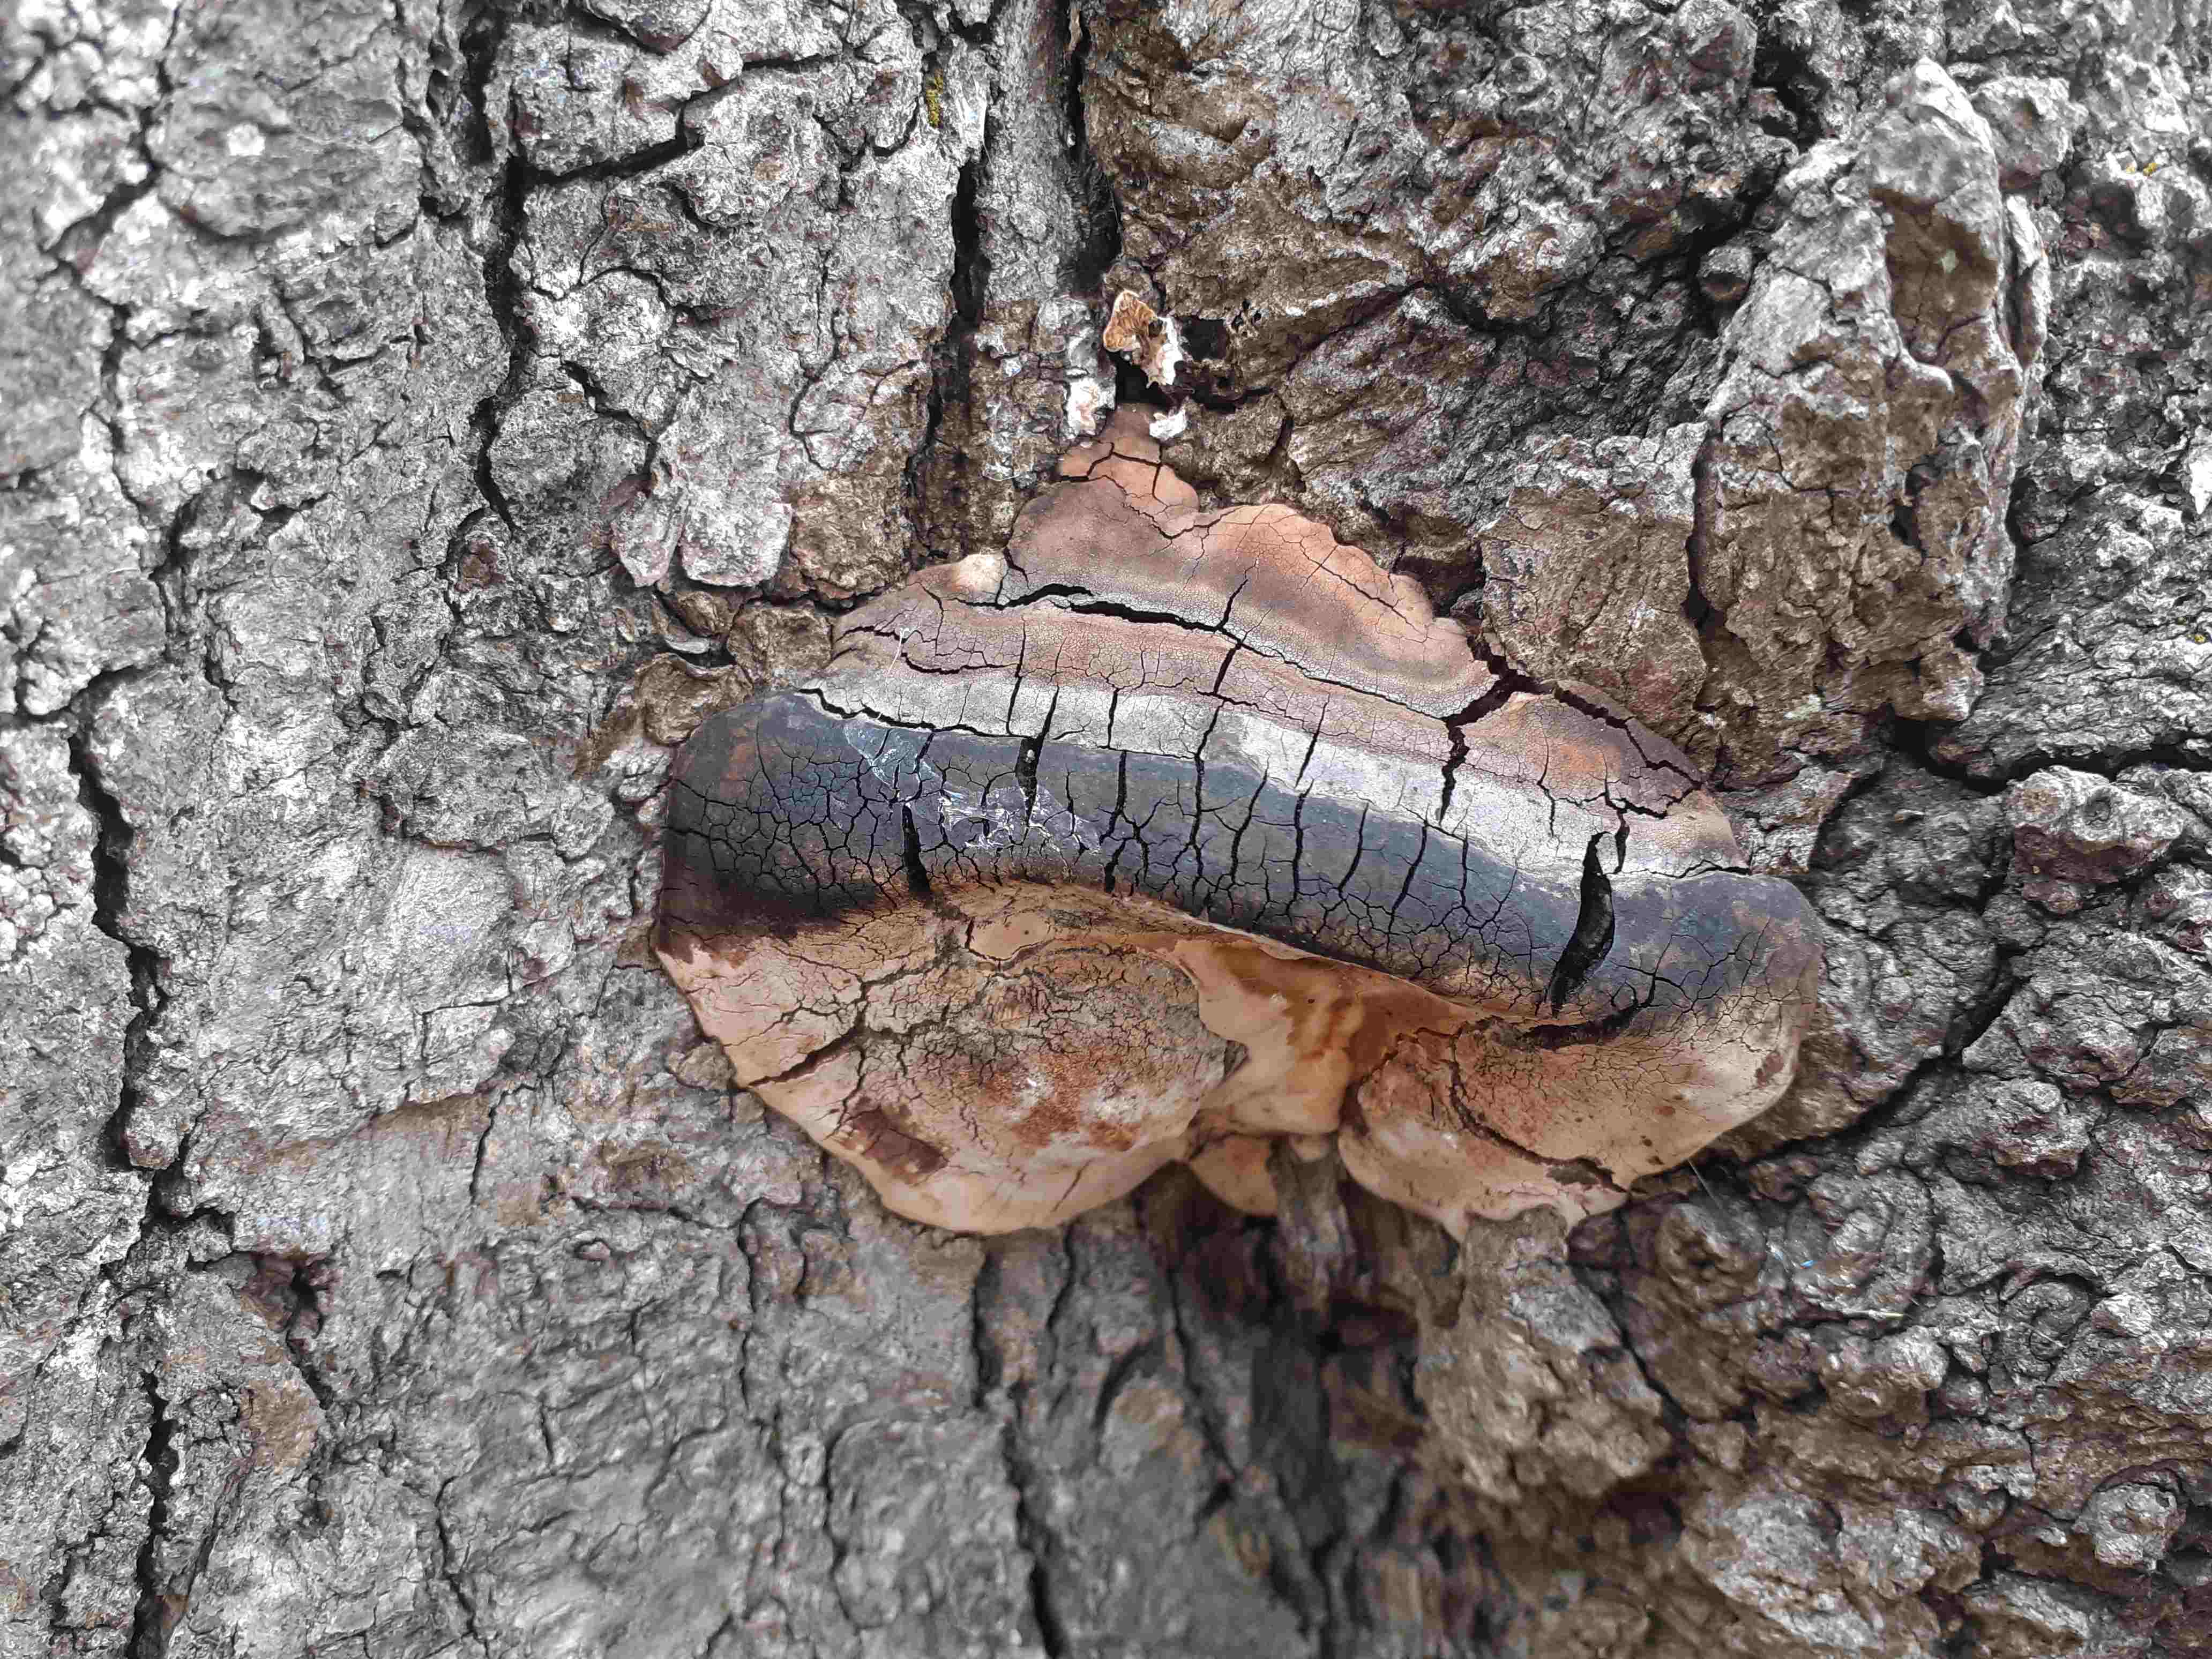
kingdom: Fungi
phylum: Basidiomycota
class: Agaricomycetes
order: Polyporales
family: Polyporaceae
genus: Vanderbylia
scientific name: Vanderbylia fraxinea
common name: stor kanelporesvamp
